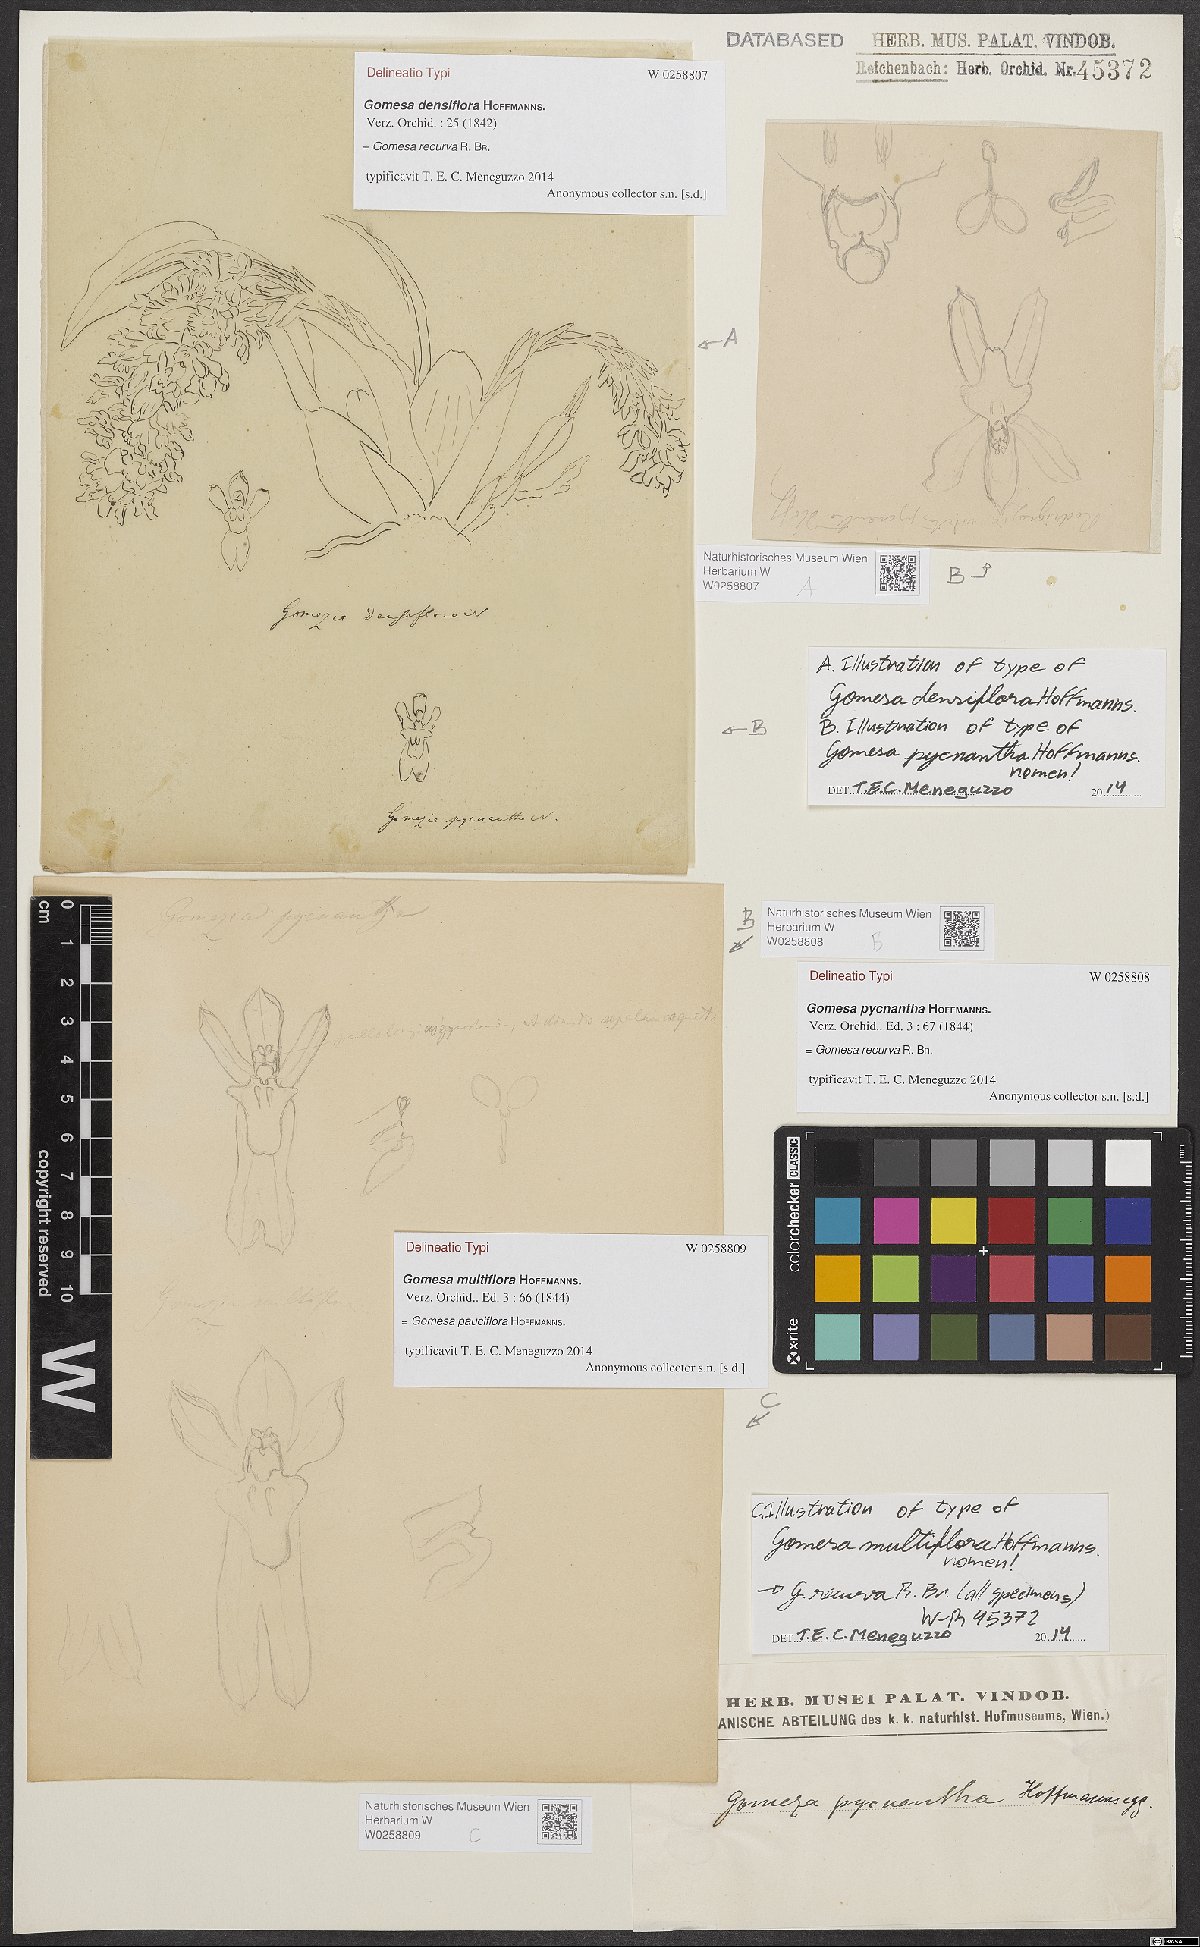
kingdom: Plantae
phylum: Tracheophyta
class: Liliopsida
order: Asparagales
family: Orchidaceae
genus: Gomesa
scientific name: Gomesa recurva
